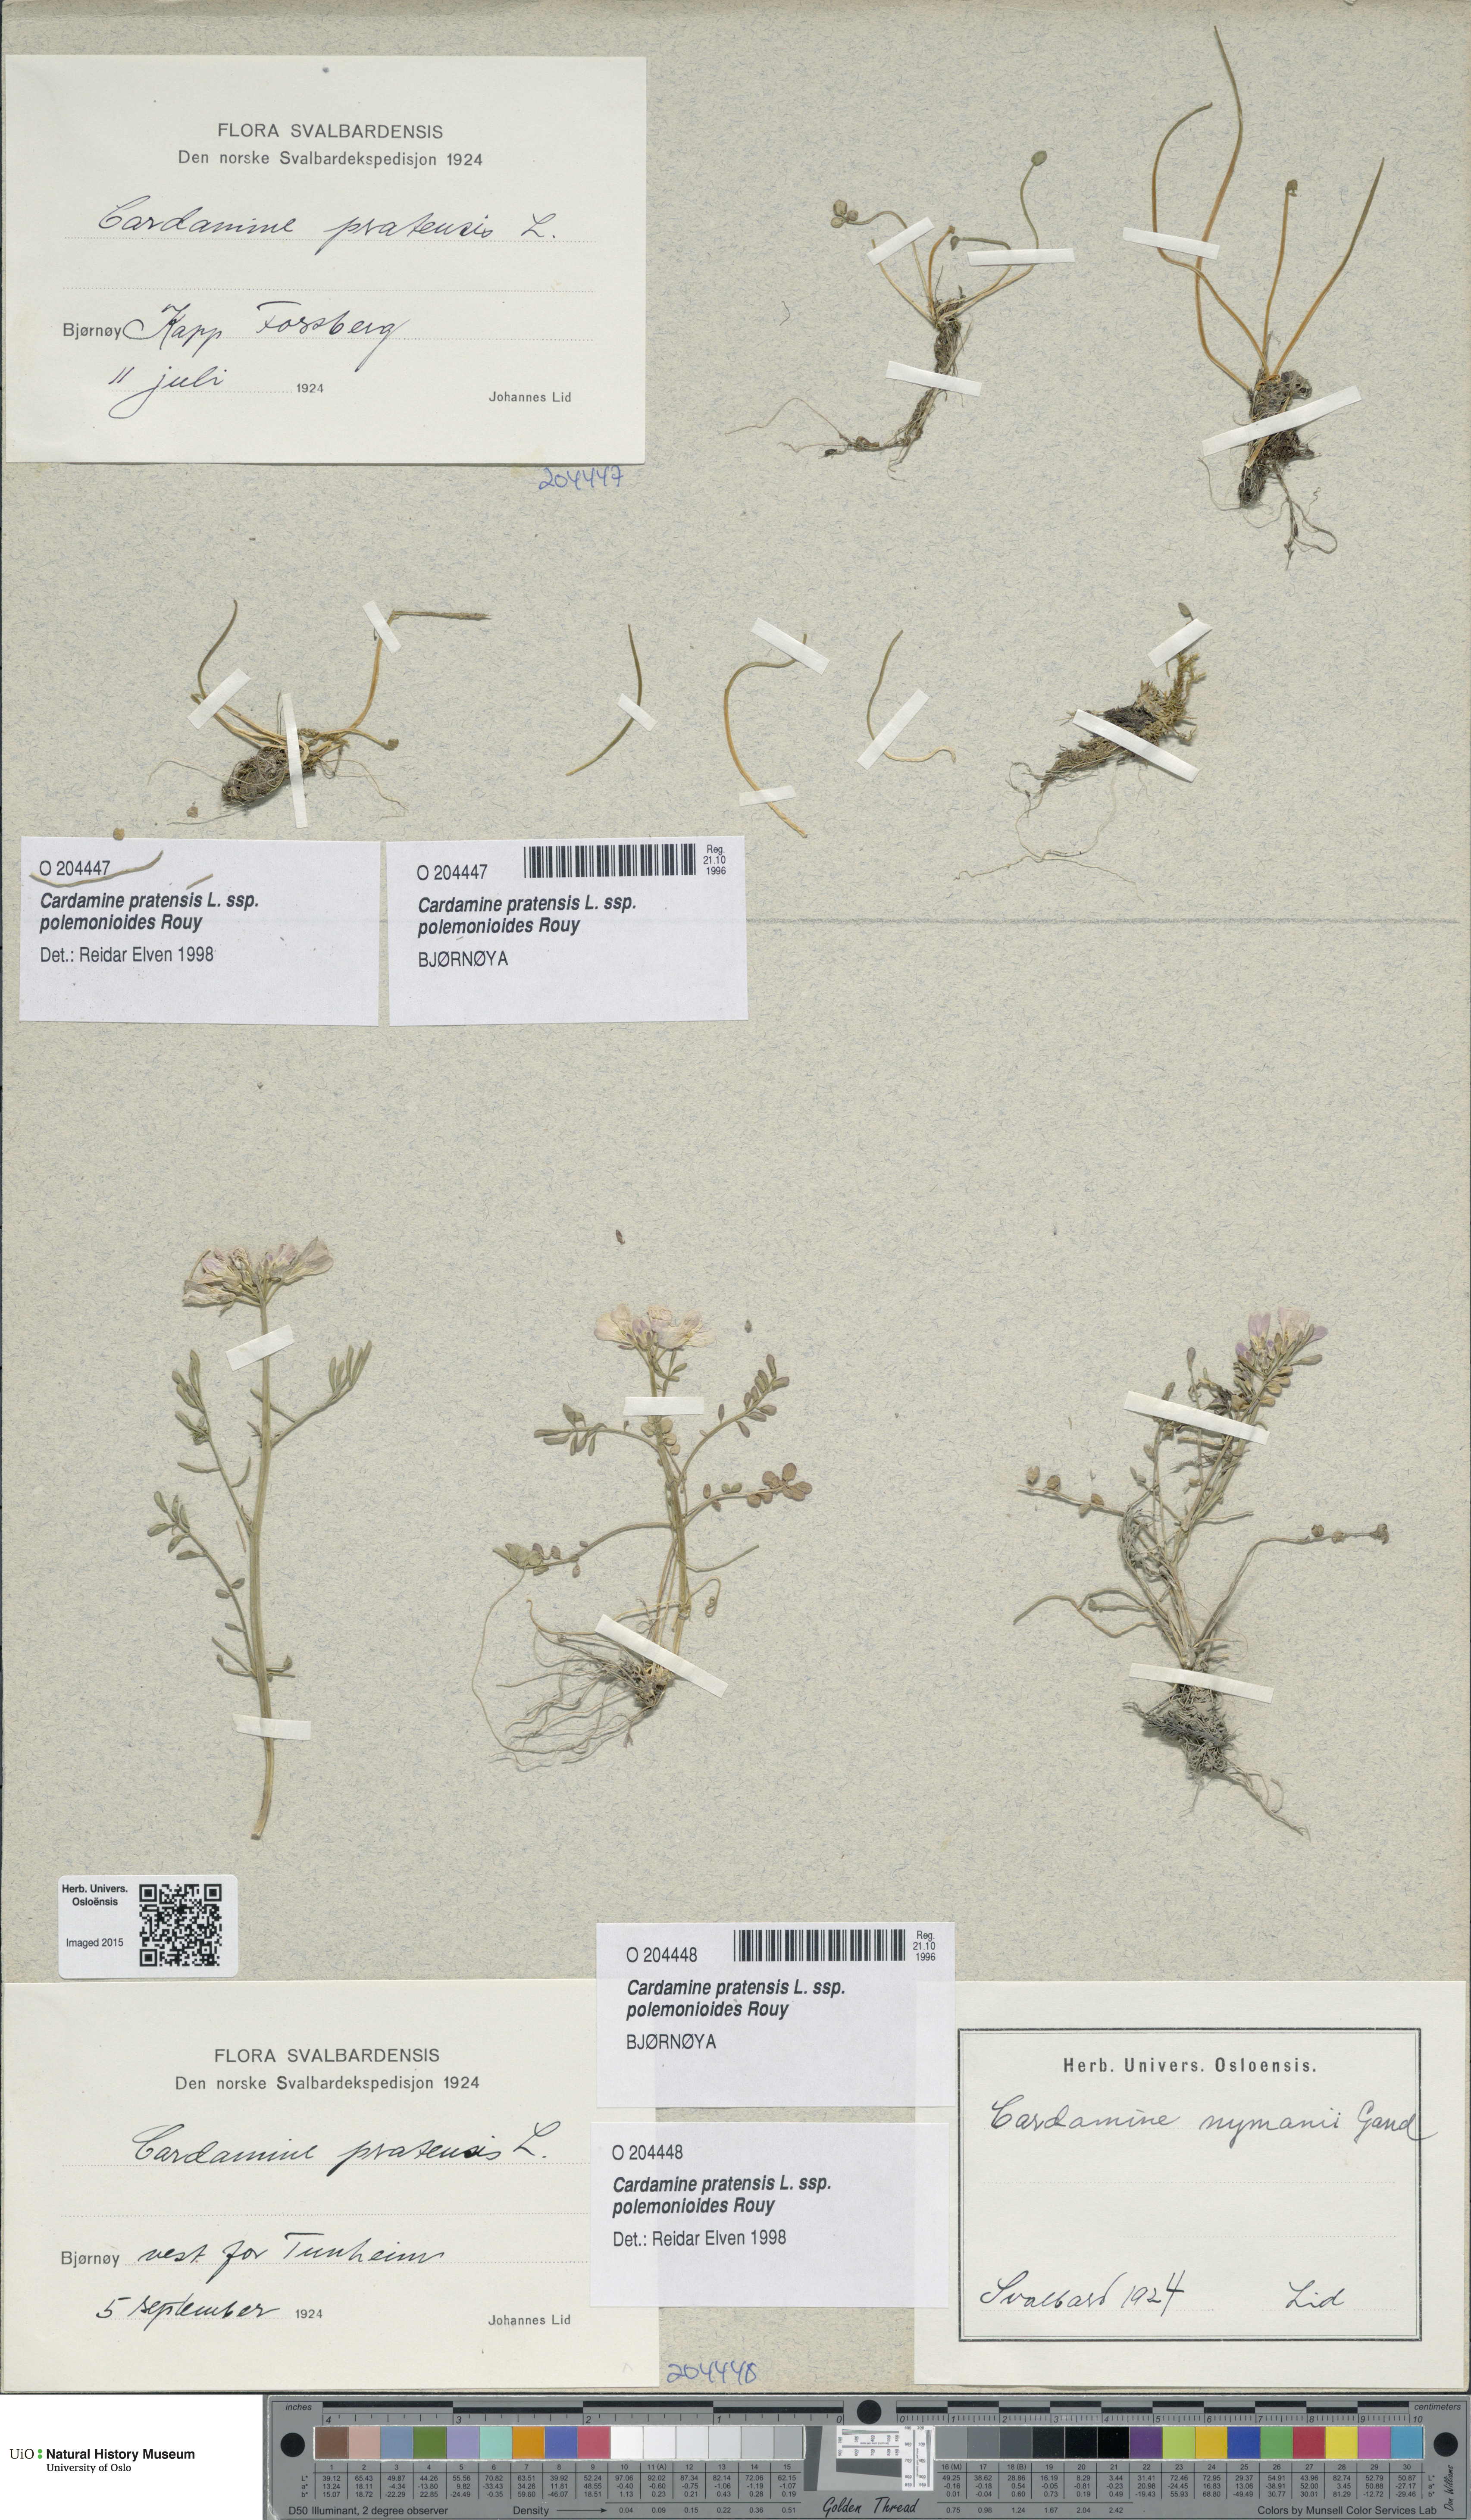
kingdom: Plantae
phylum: Tracheophyta
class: Magnoliopsida
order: Brassicales
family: Brassicaceae
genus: Cardamine
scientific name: Cardamine nymanii
